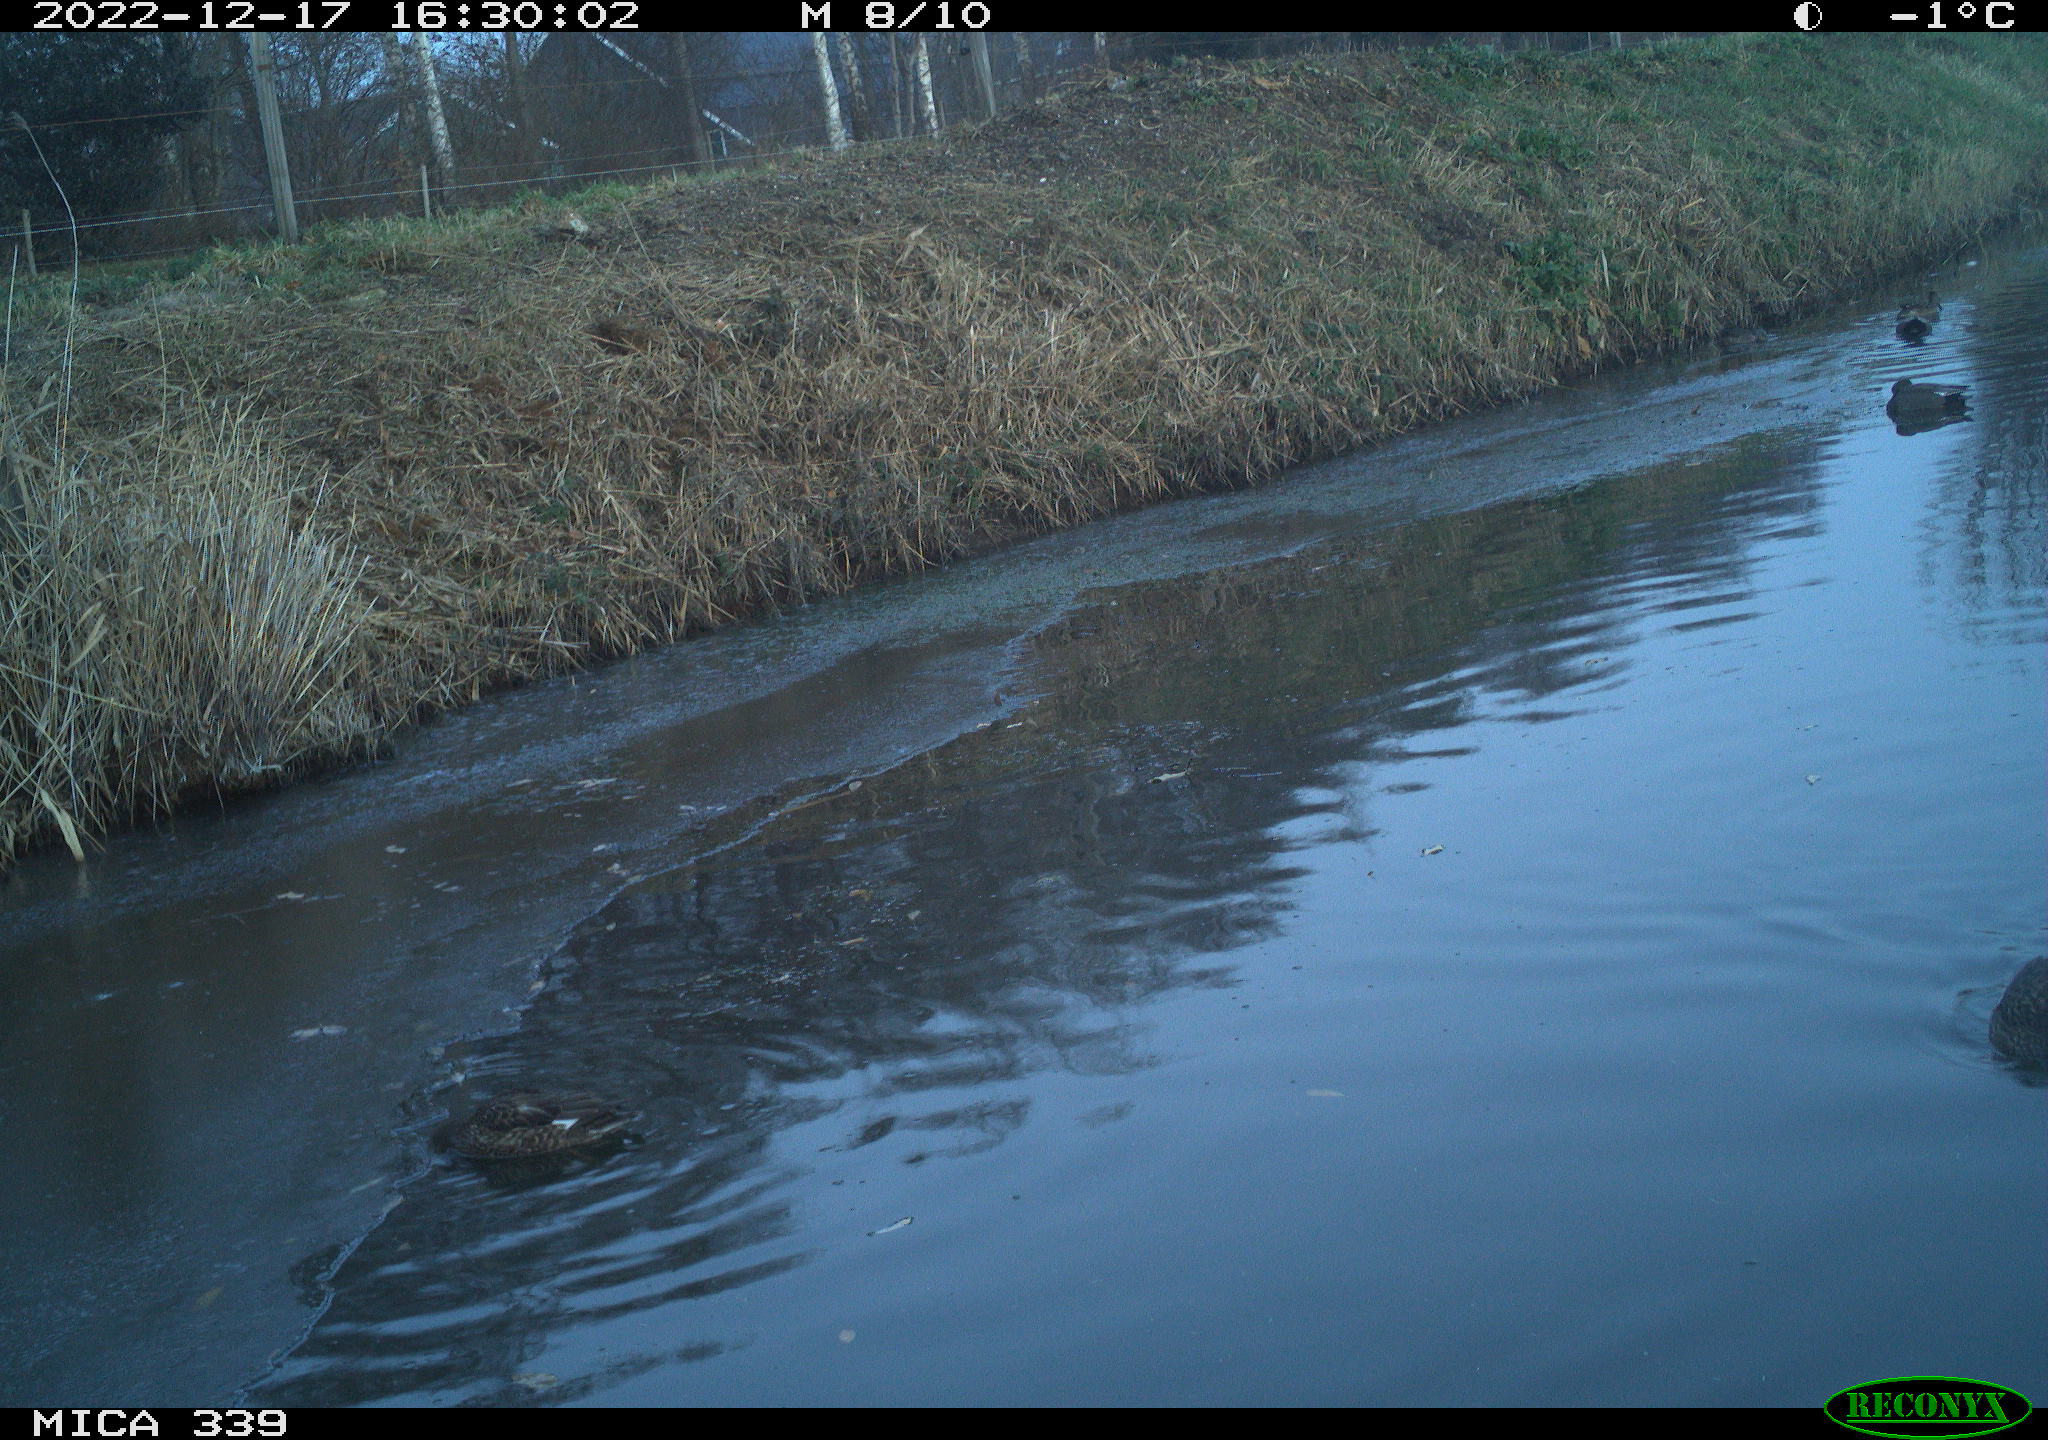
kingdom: Animalia
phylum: Chordata
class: Aves
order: Anseriformes
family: Anatidae
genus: Anas
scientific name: Anas
